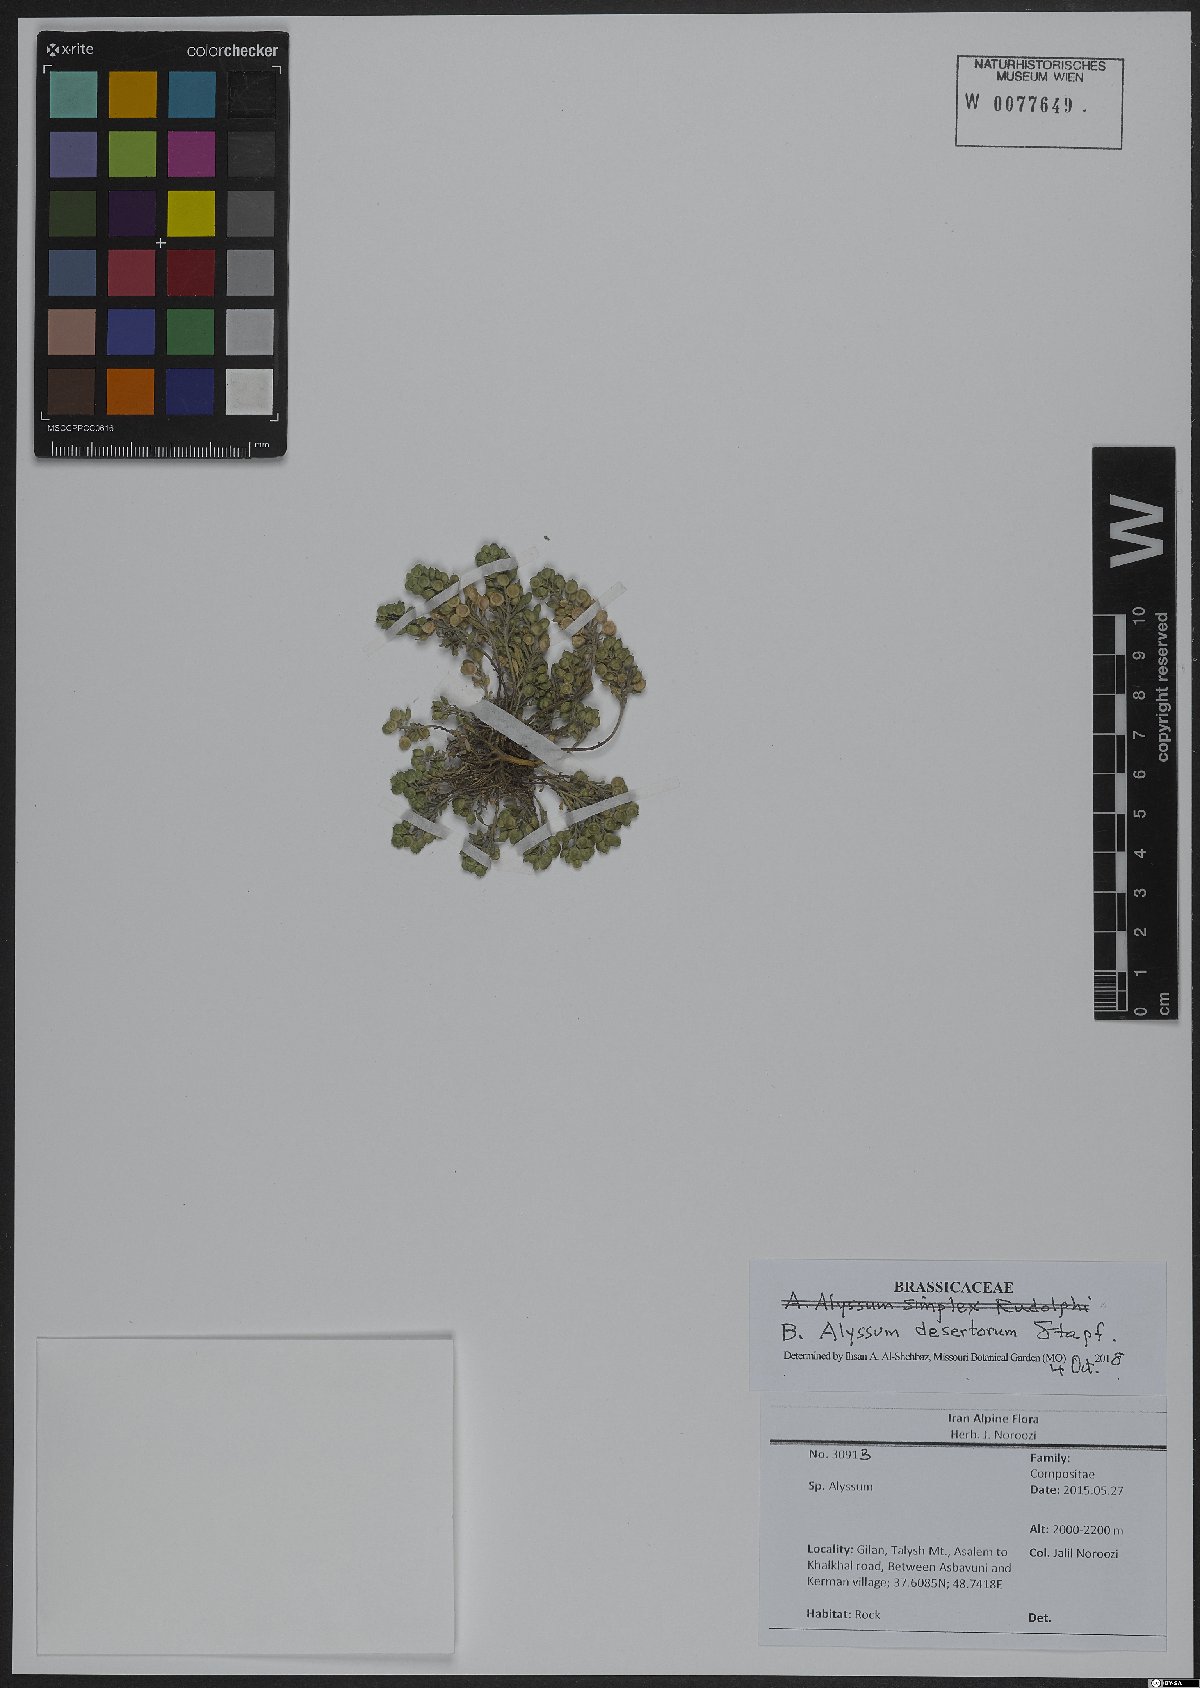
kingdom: Plantae
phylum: Tracheophyta
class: Magnoliopsida
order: Brassicales
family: Brassicaceae
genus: Alyssum
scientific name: Alyssum turkestanicum
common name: Desert alyssum
